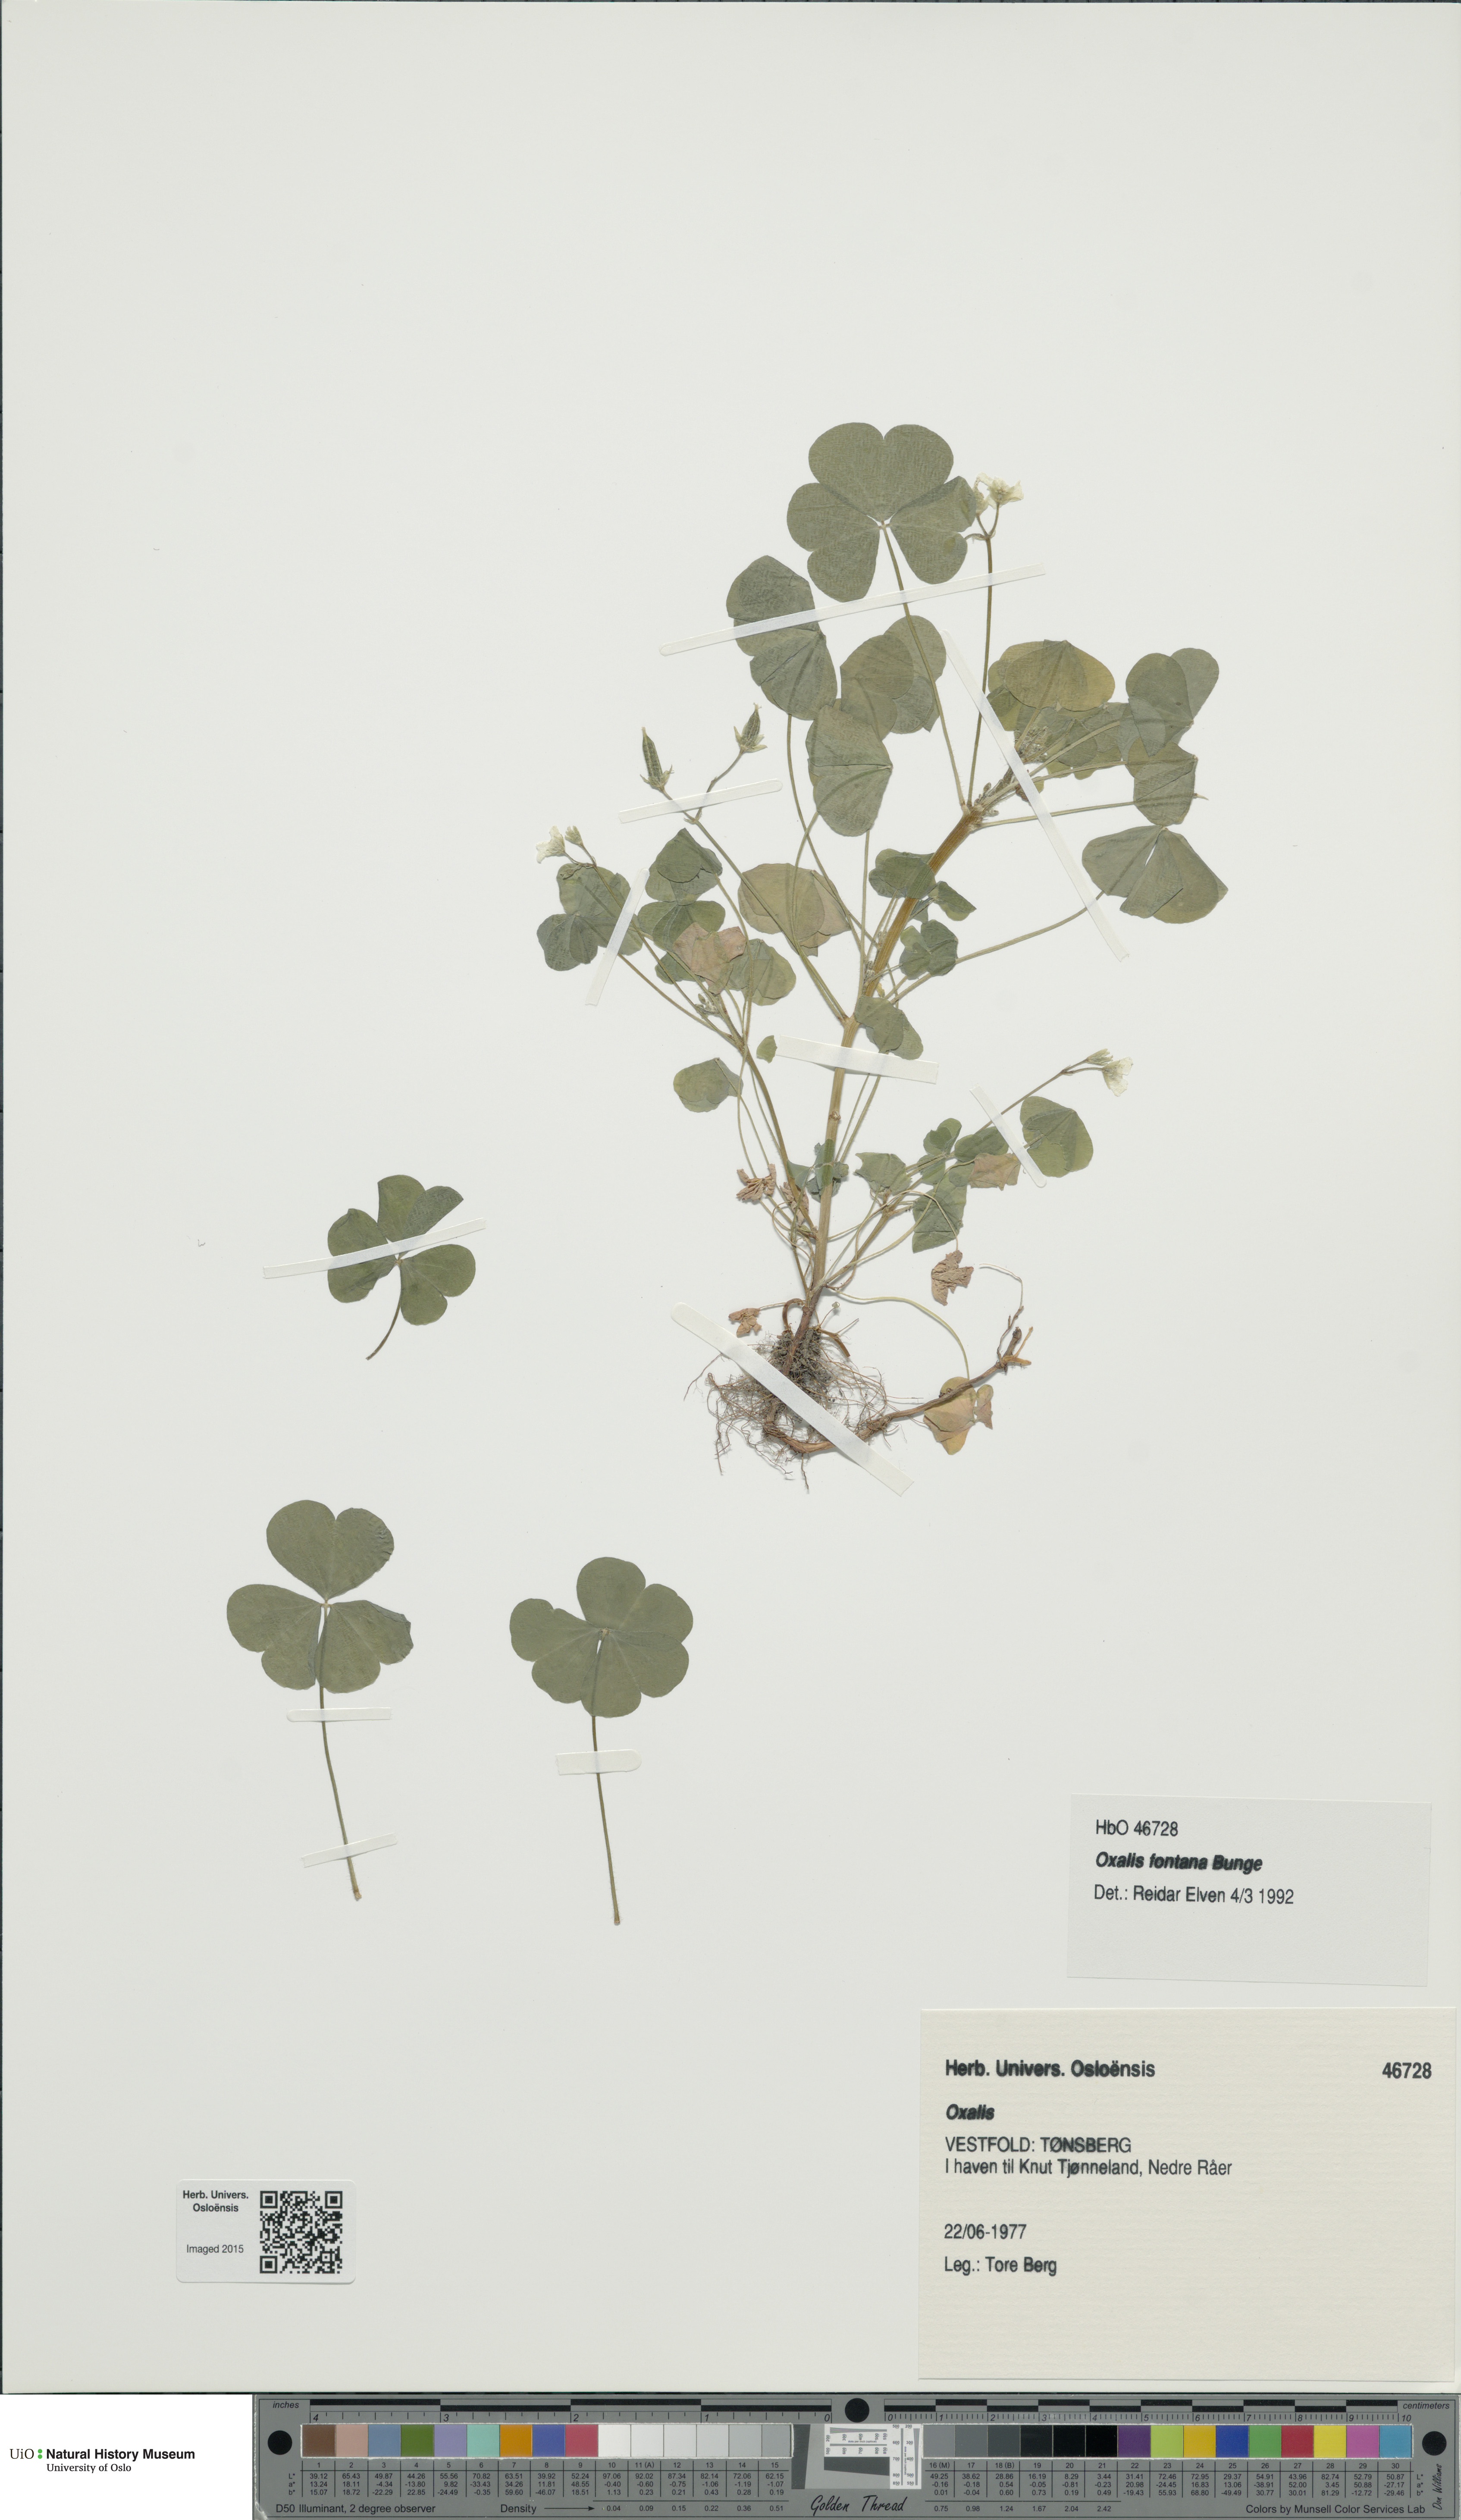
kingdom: Plantae
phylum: Tracheophyta
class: Magnoliopsida
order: Oxalidales
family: Oxalidaceae
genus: Oxalis
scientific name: Oxalis stricta
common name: Upright yellow-sorrel
